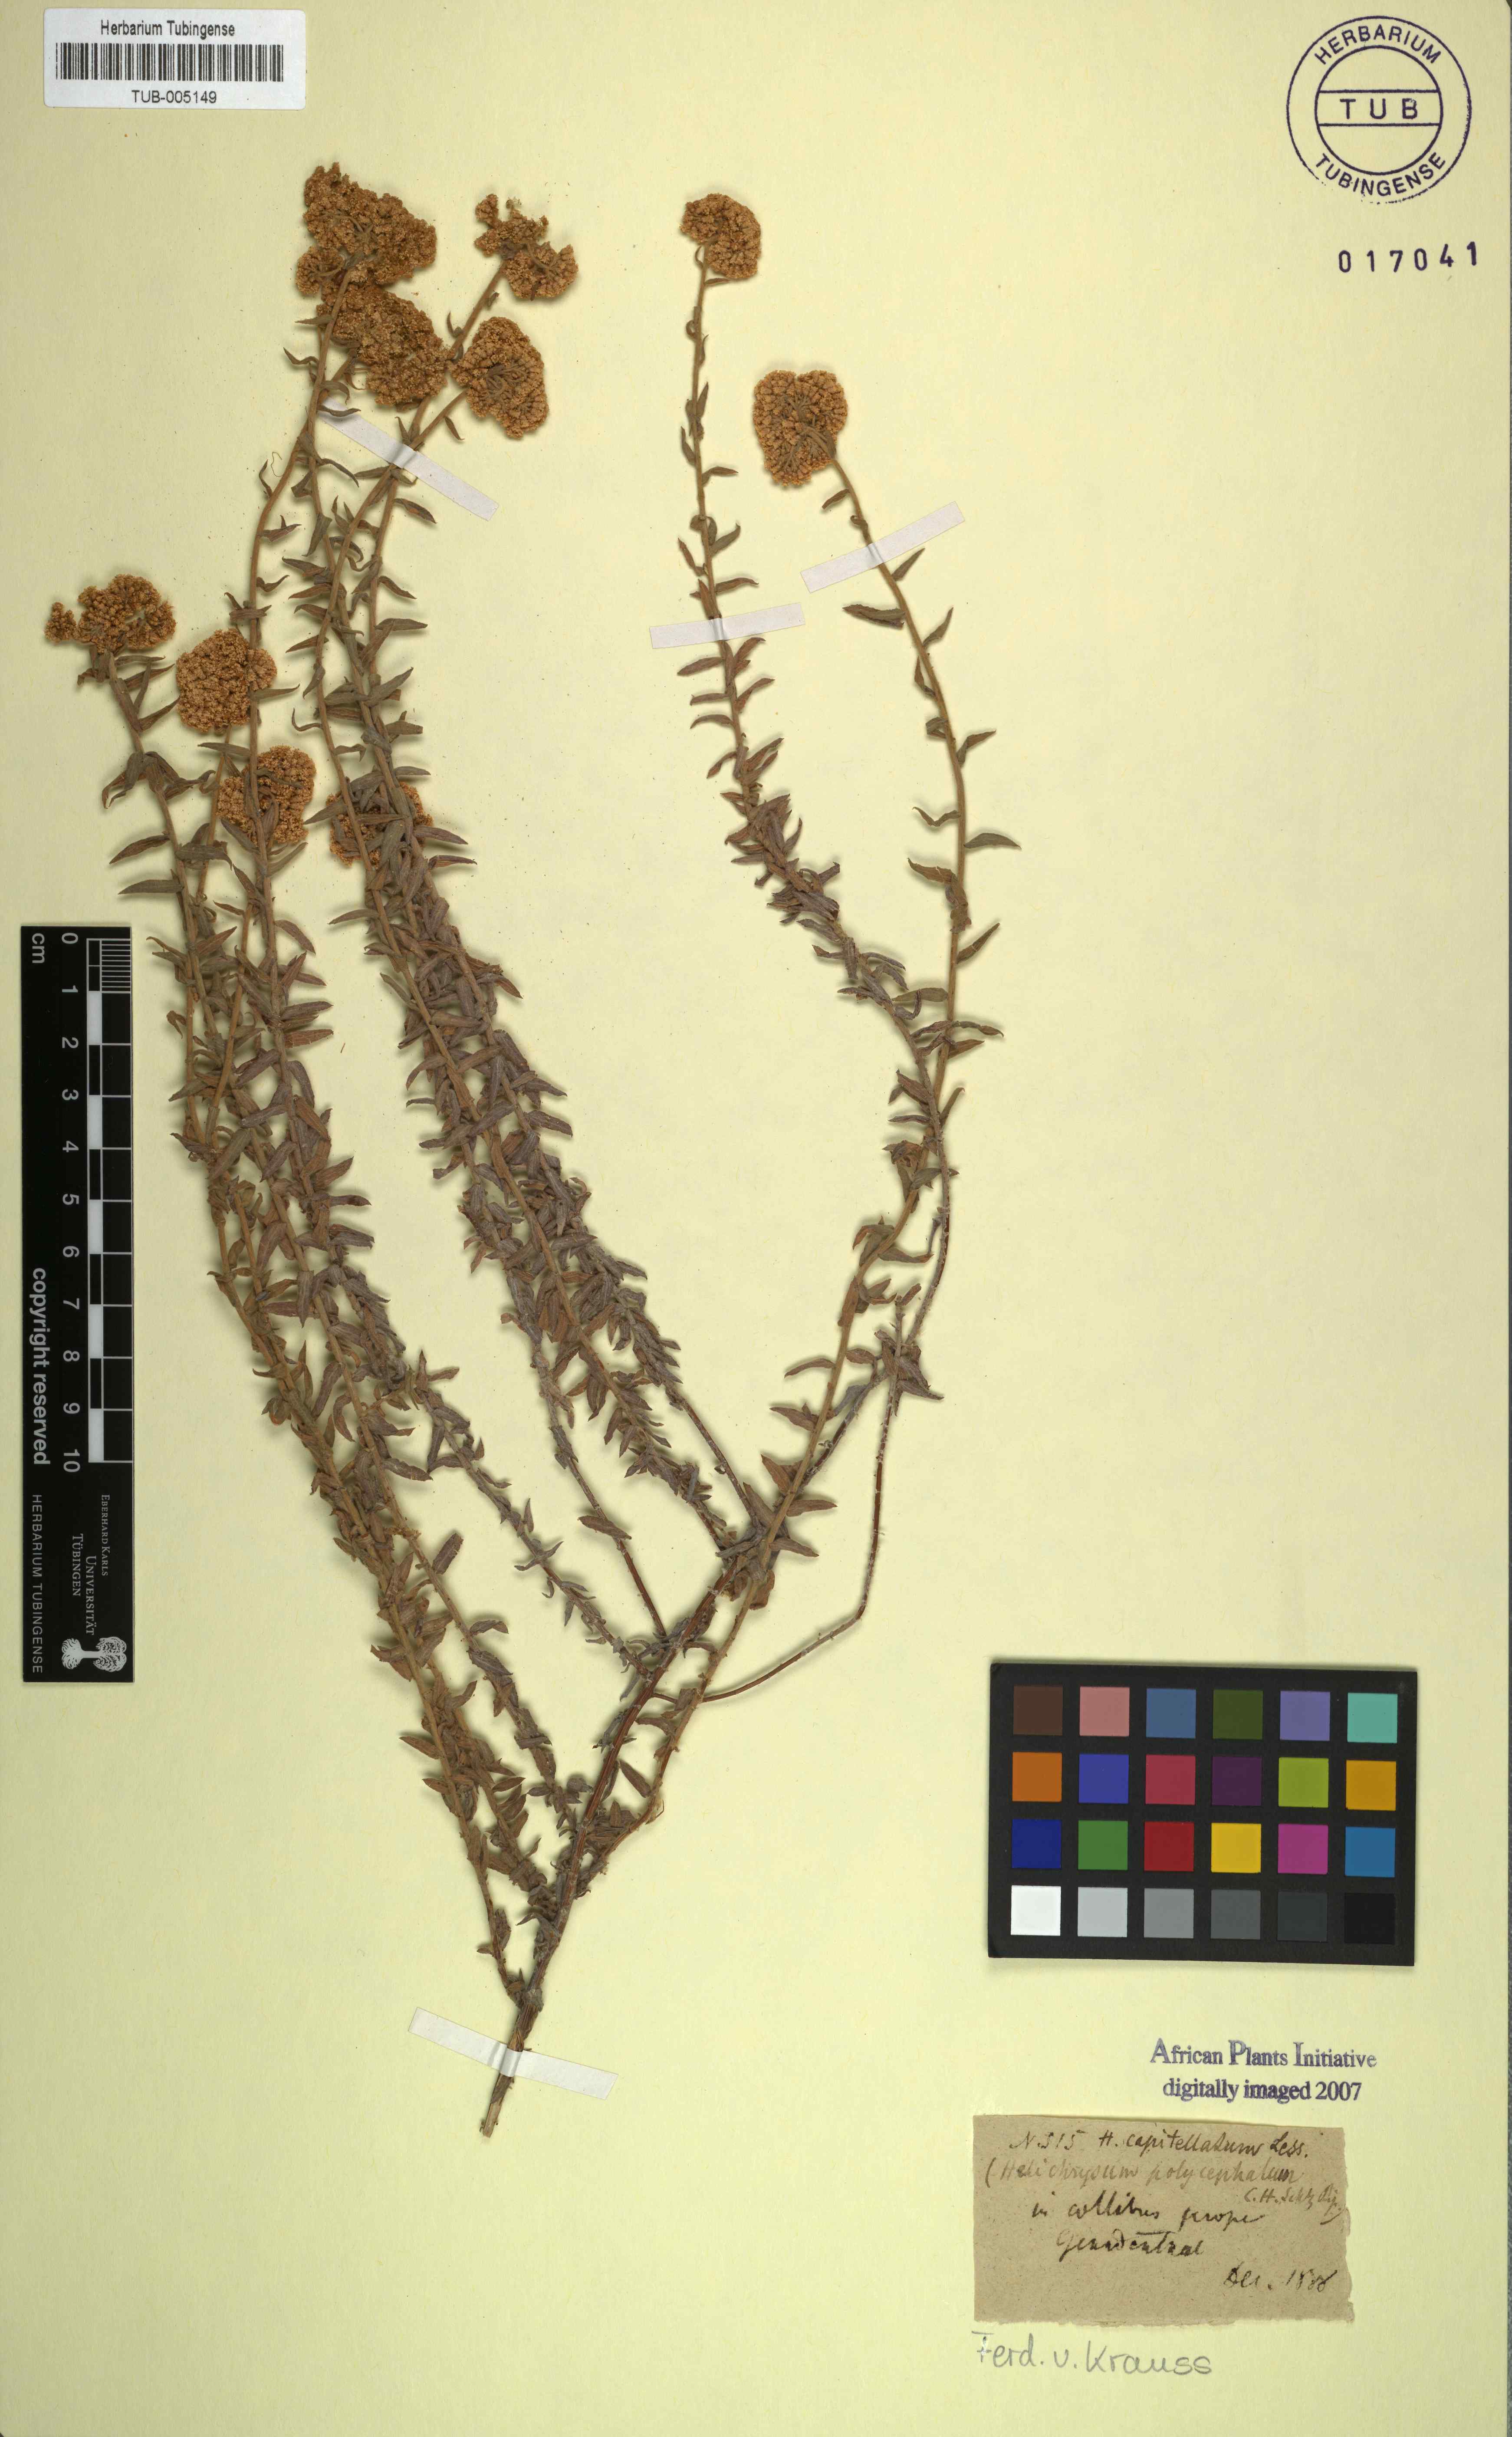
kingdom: Plantae
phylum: Tracheophyta
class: Magnoliopsida
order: Asterales
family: Asteraceae
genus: Helichrysum
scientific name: Helichrysum helianthemifolium
